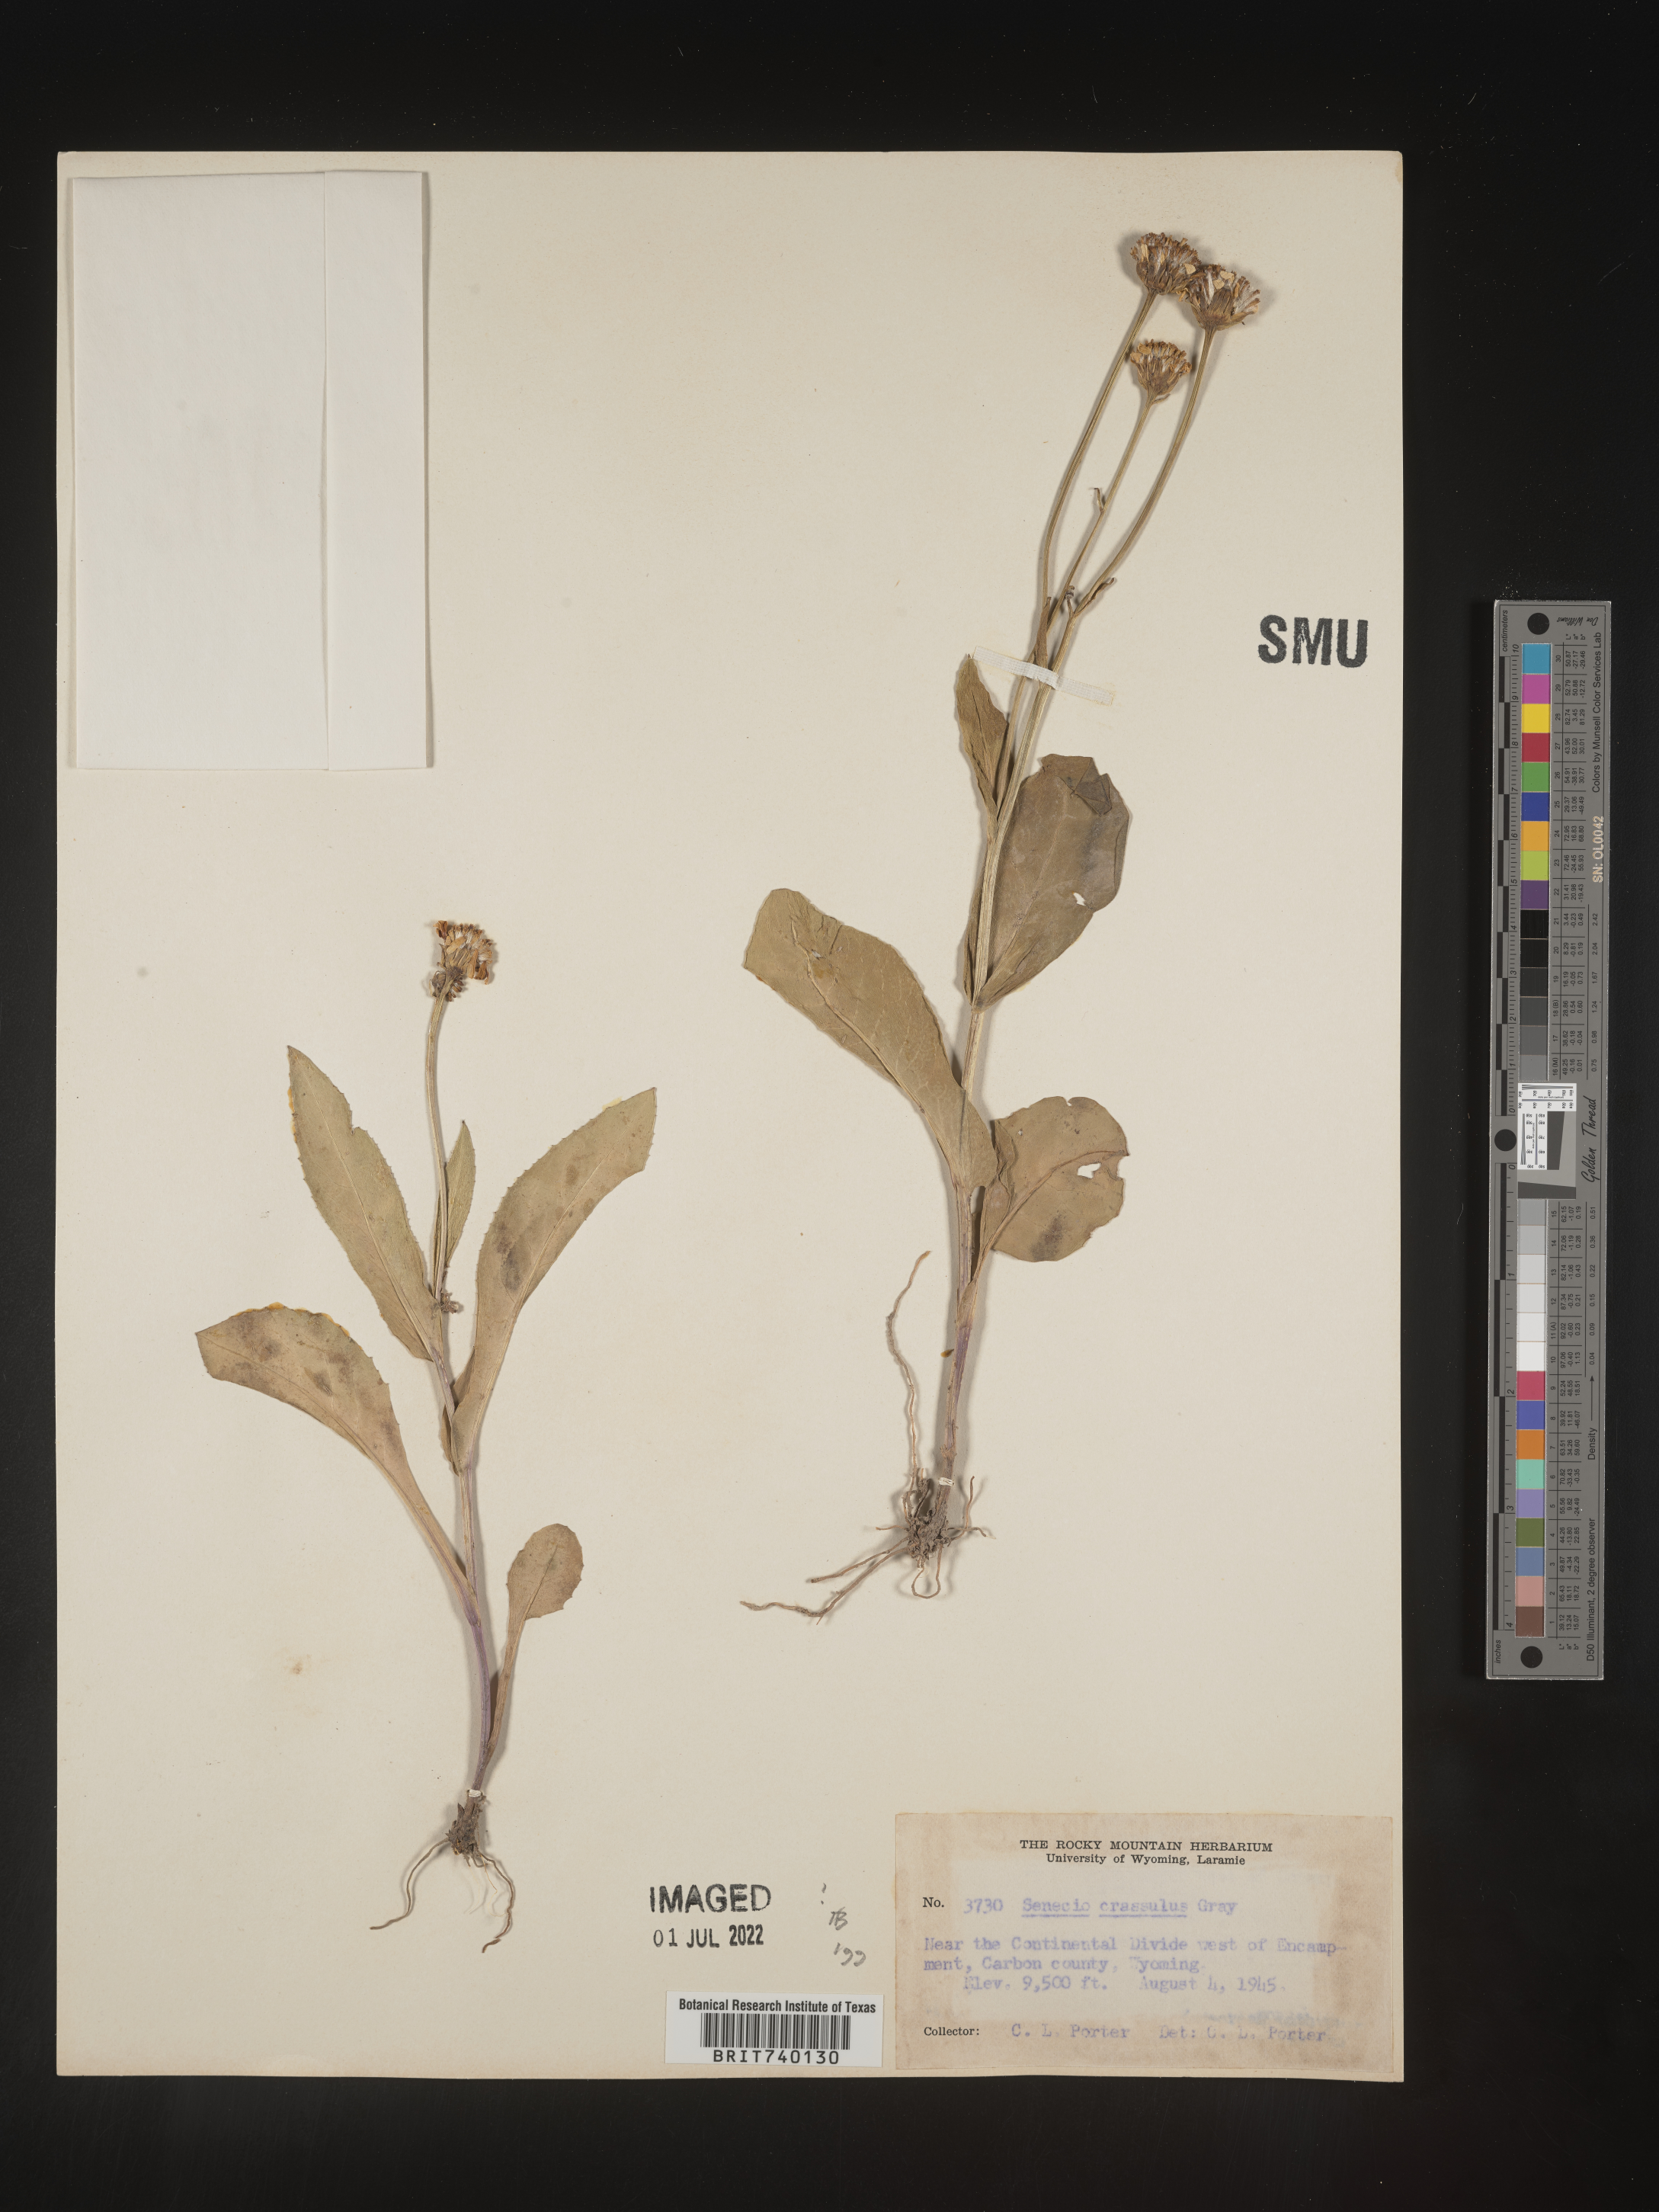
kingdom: Plantae
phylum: Tracheophyta
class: Magnoliopsida
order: Asterales
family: Asteraceae
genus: Senecio
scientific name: Senecio crassulus
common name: Mountain-meadow butterweed
